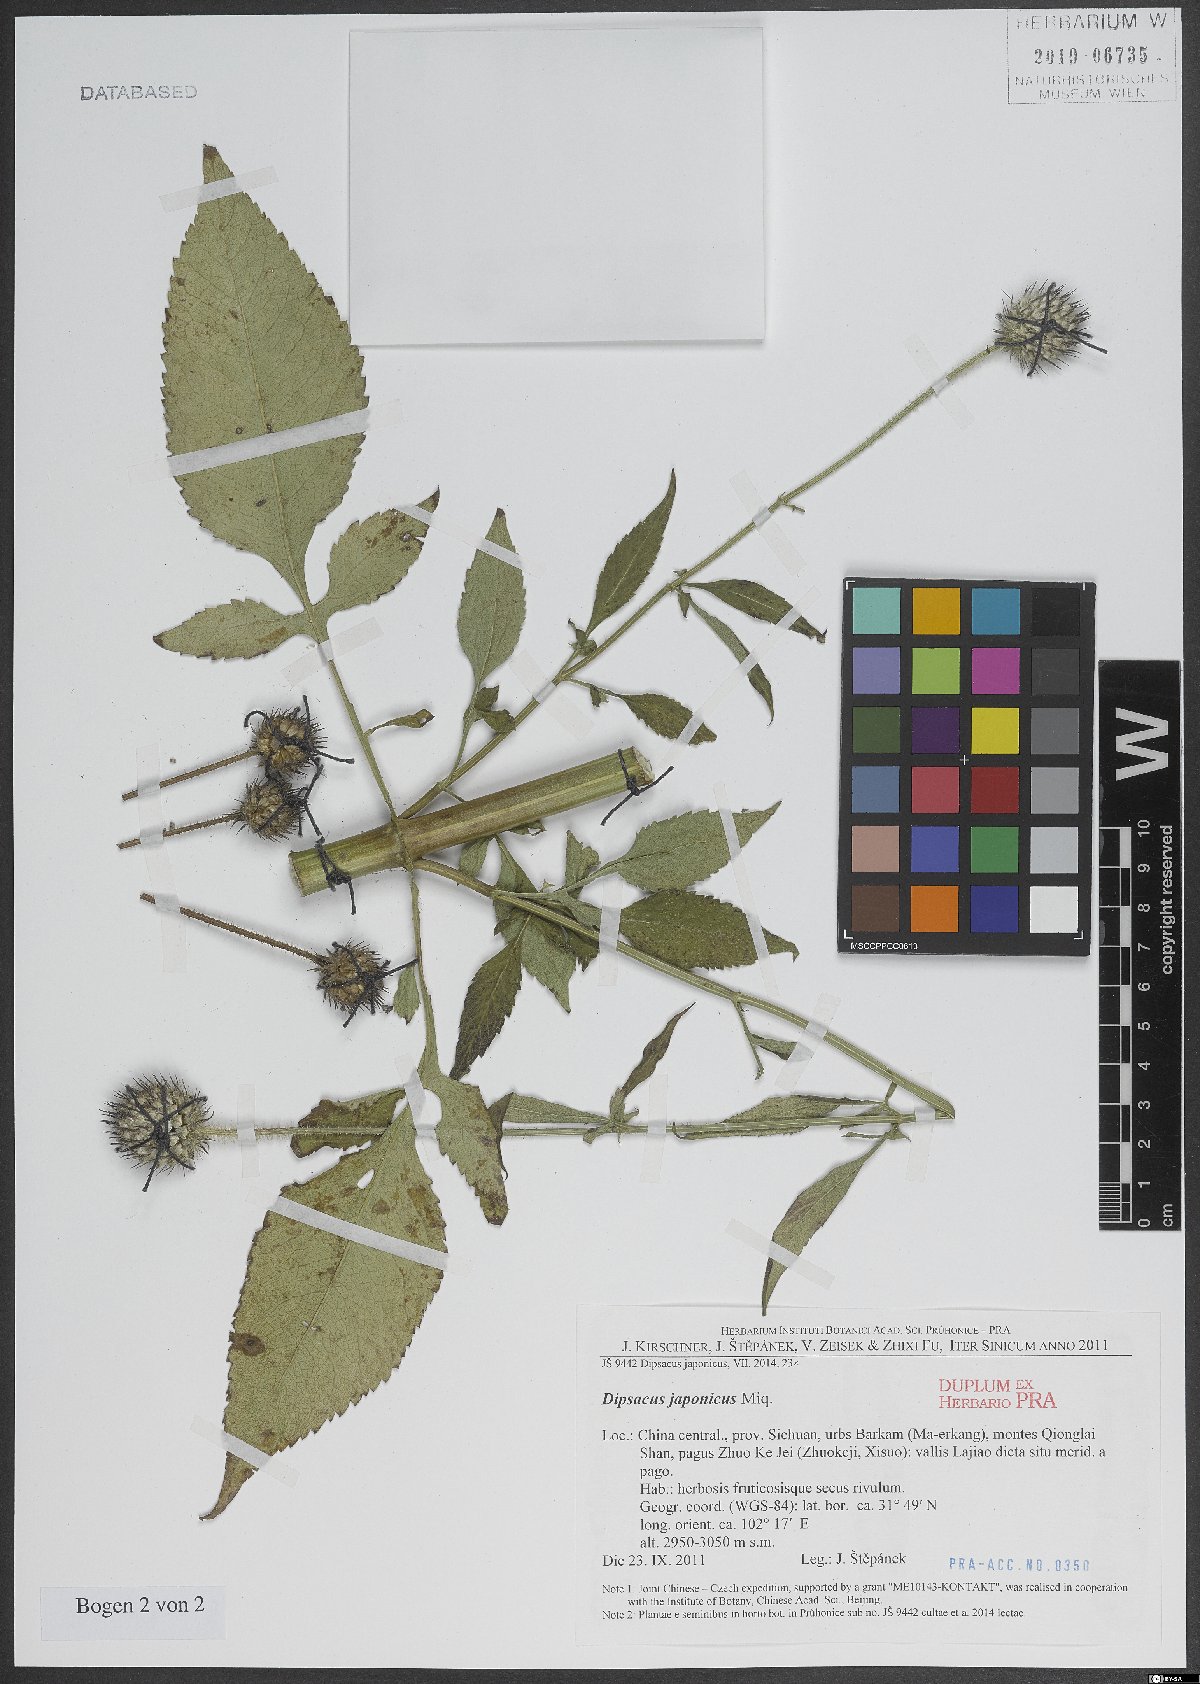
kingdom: Plantae
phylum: Tracheophyta
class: Magnoliopsida
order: Dipsacales
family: Caprifoliaceae
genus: Dipsacus
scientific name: Dipsacus
